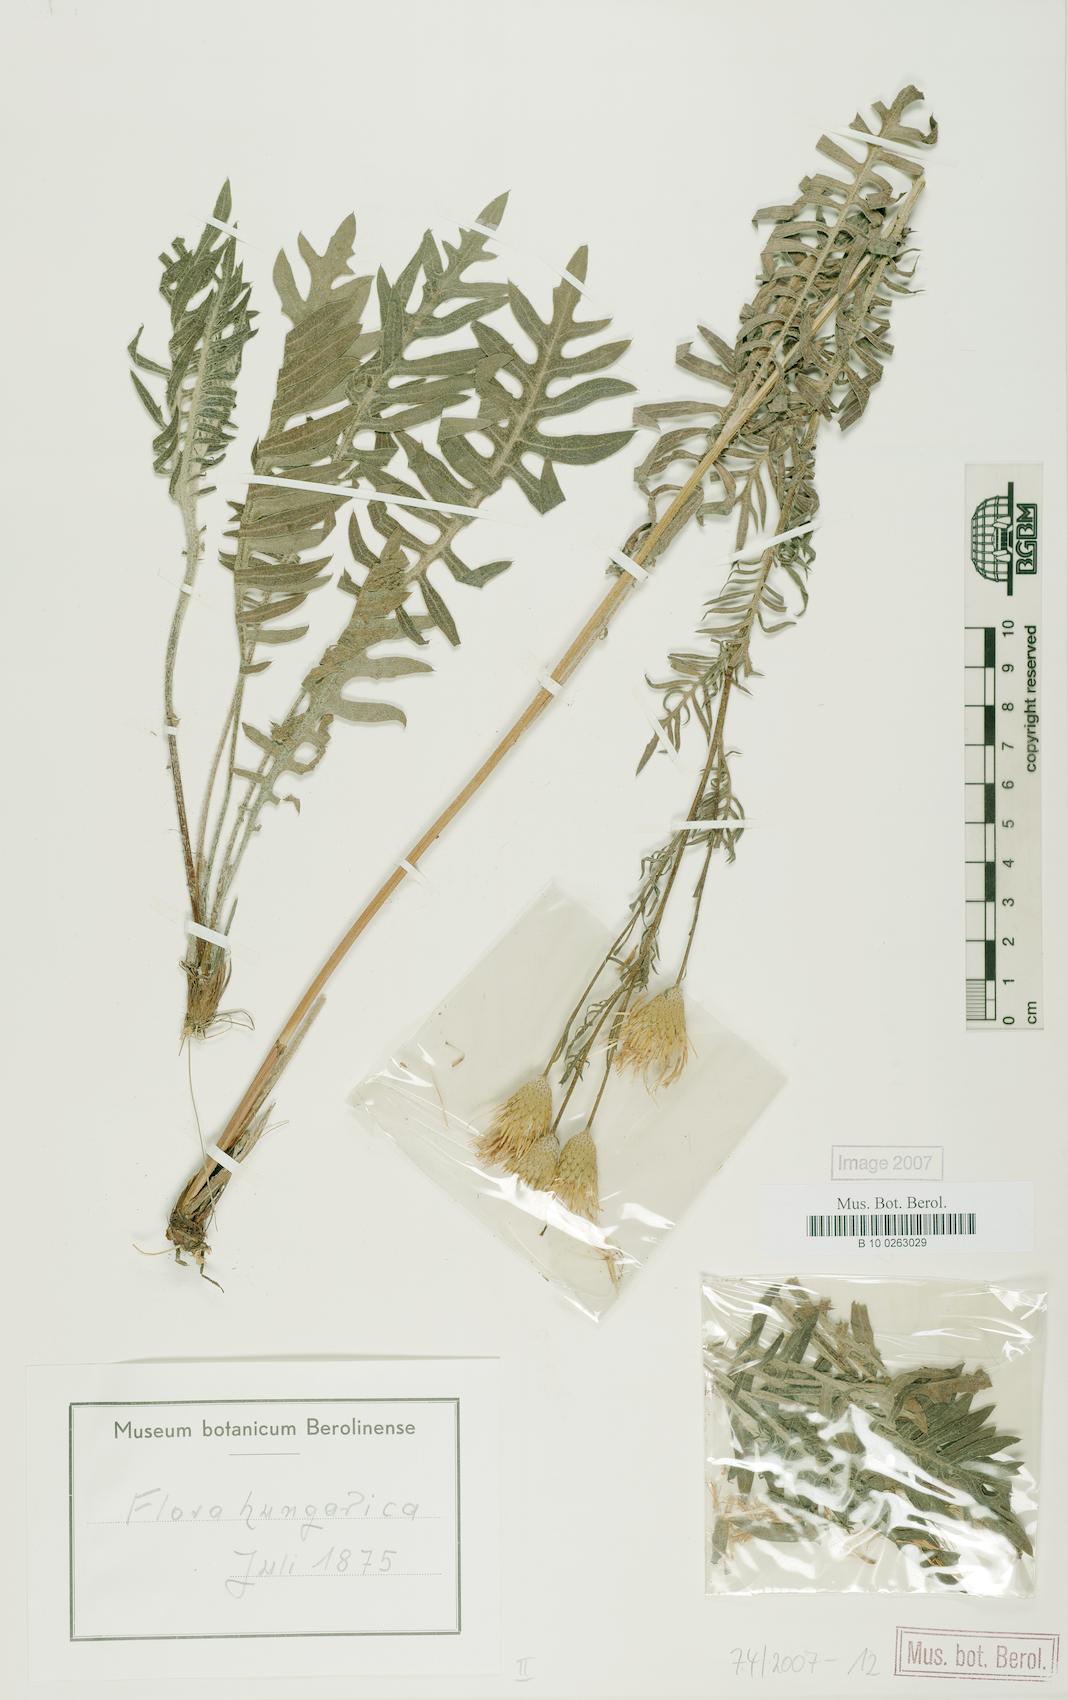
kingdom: Plantae
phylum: Tracheophyta
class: Magnoliopsida
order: Asterales
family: Asteraceae
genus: Klasea
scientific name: Klasea radiata
